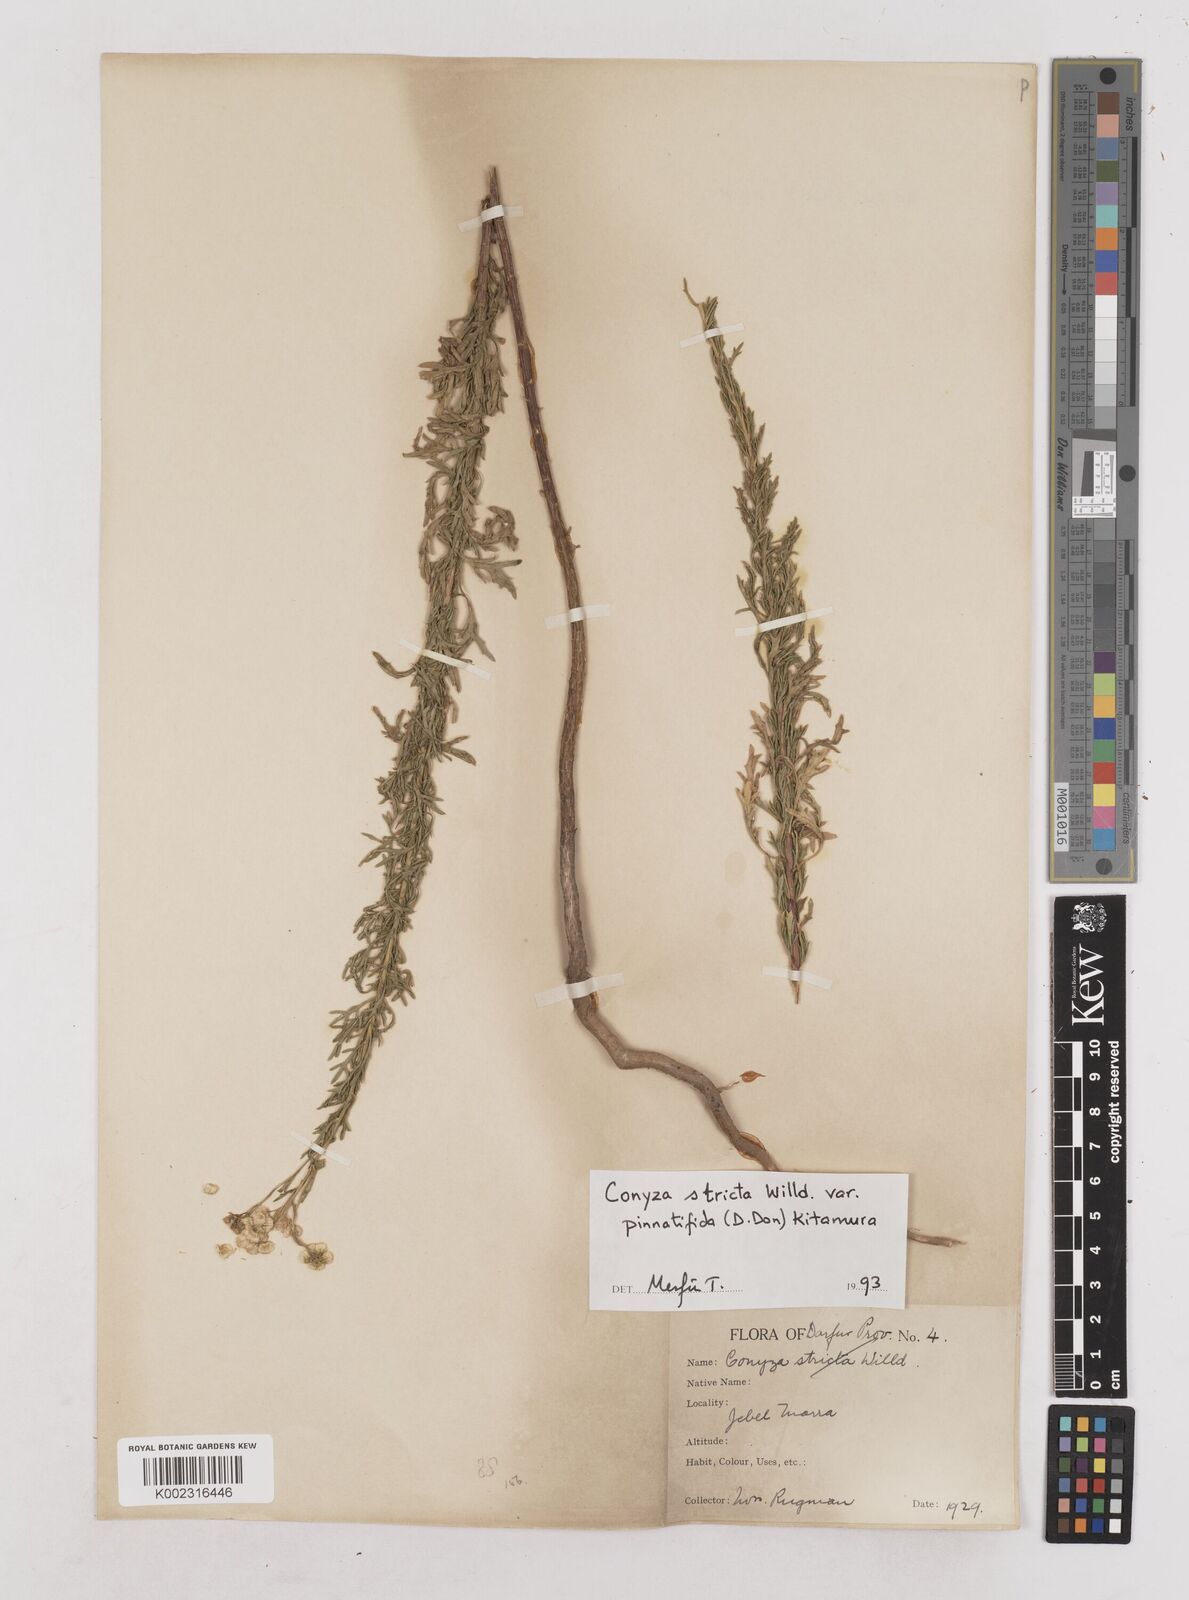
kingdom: Plantae
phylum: Tracheophyta
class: Magnoliopsida
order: Asterales
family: Asteraceae
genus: Nidorella
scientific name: Nidorella triloba
